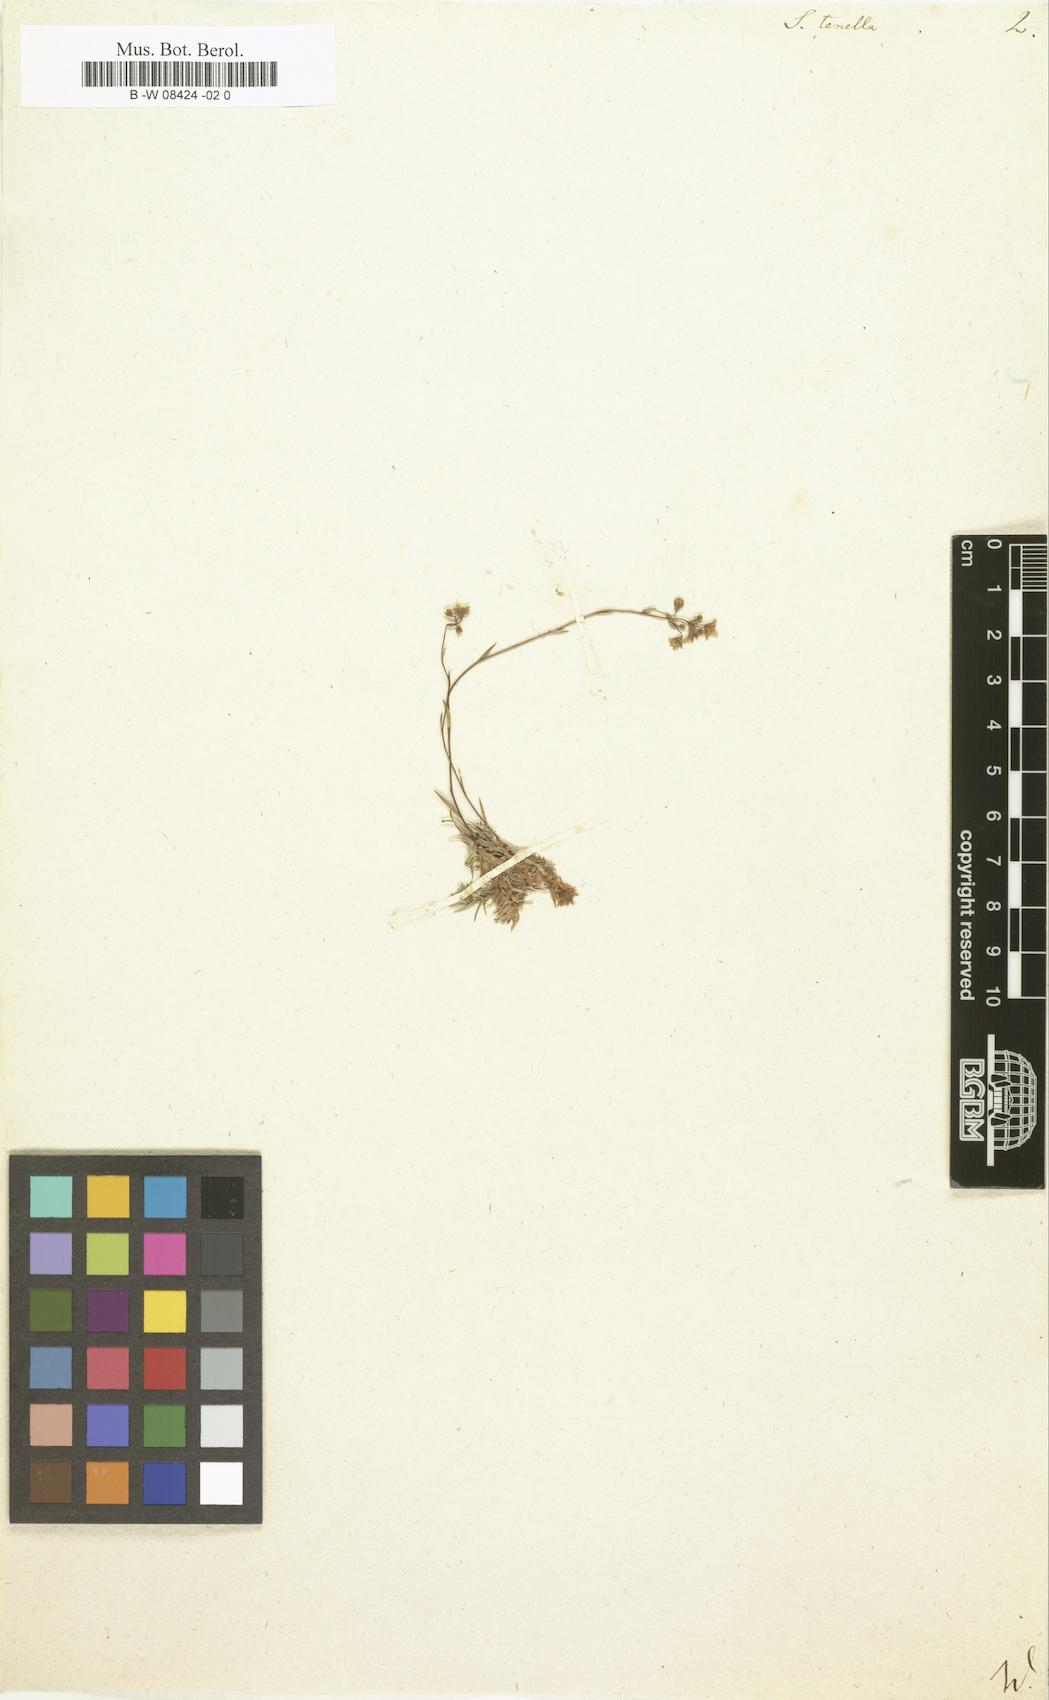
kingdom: Plantae
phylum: Tracheophyta
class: Magnoliopsida
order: Saxifragales
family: Saxifragaceae
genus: Saxifraga
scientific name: Saxifraga tenella
